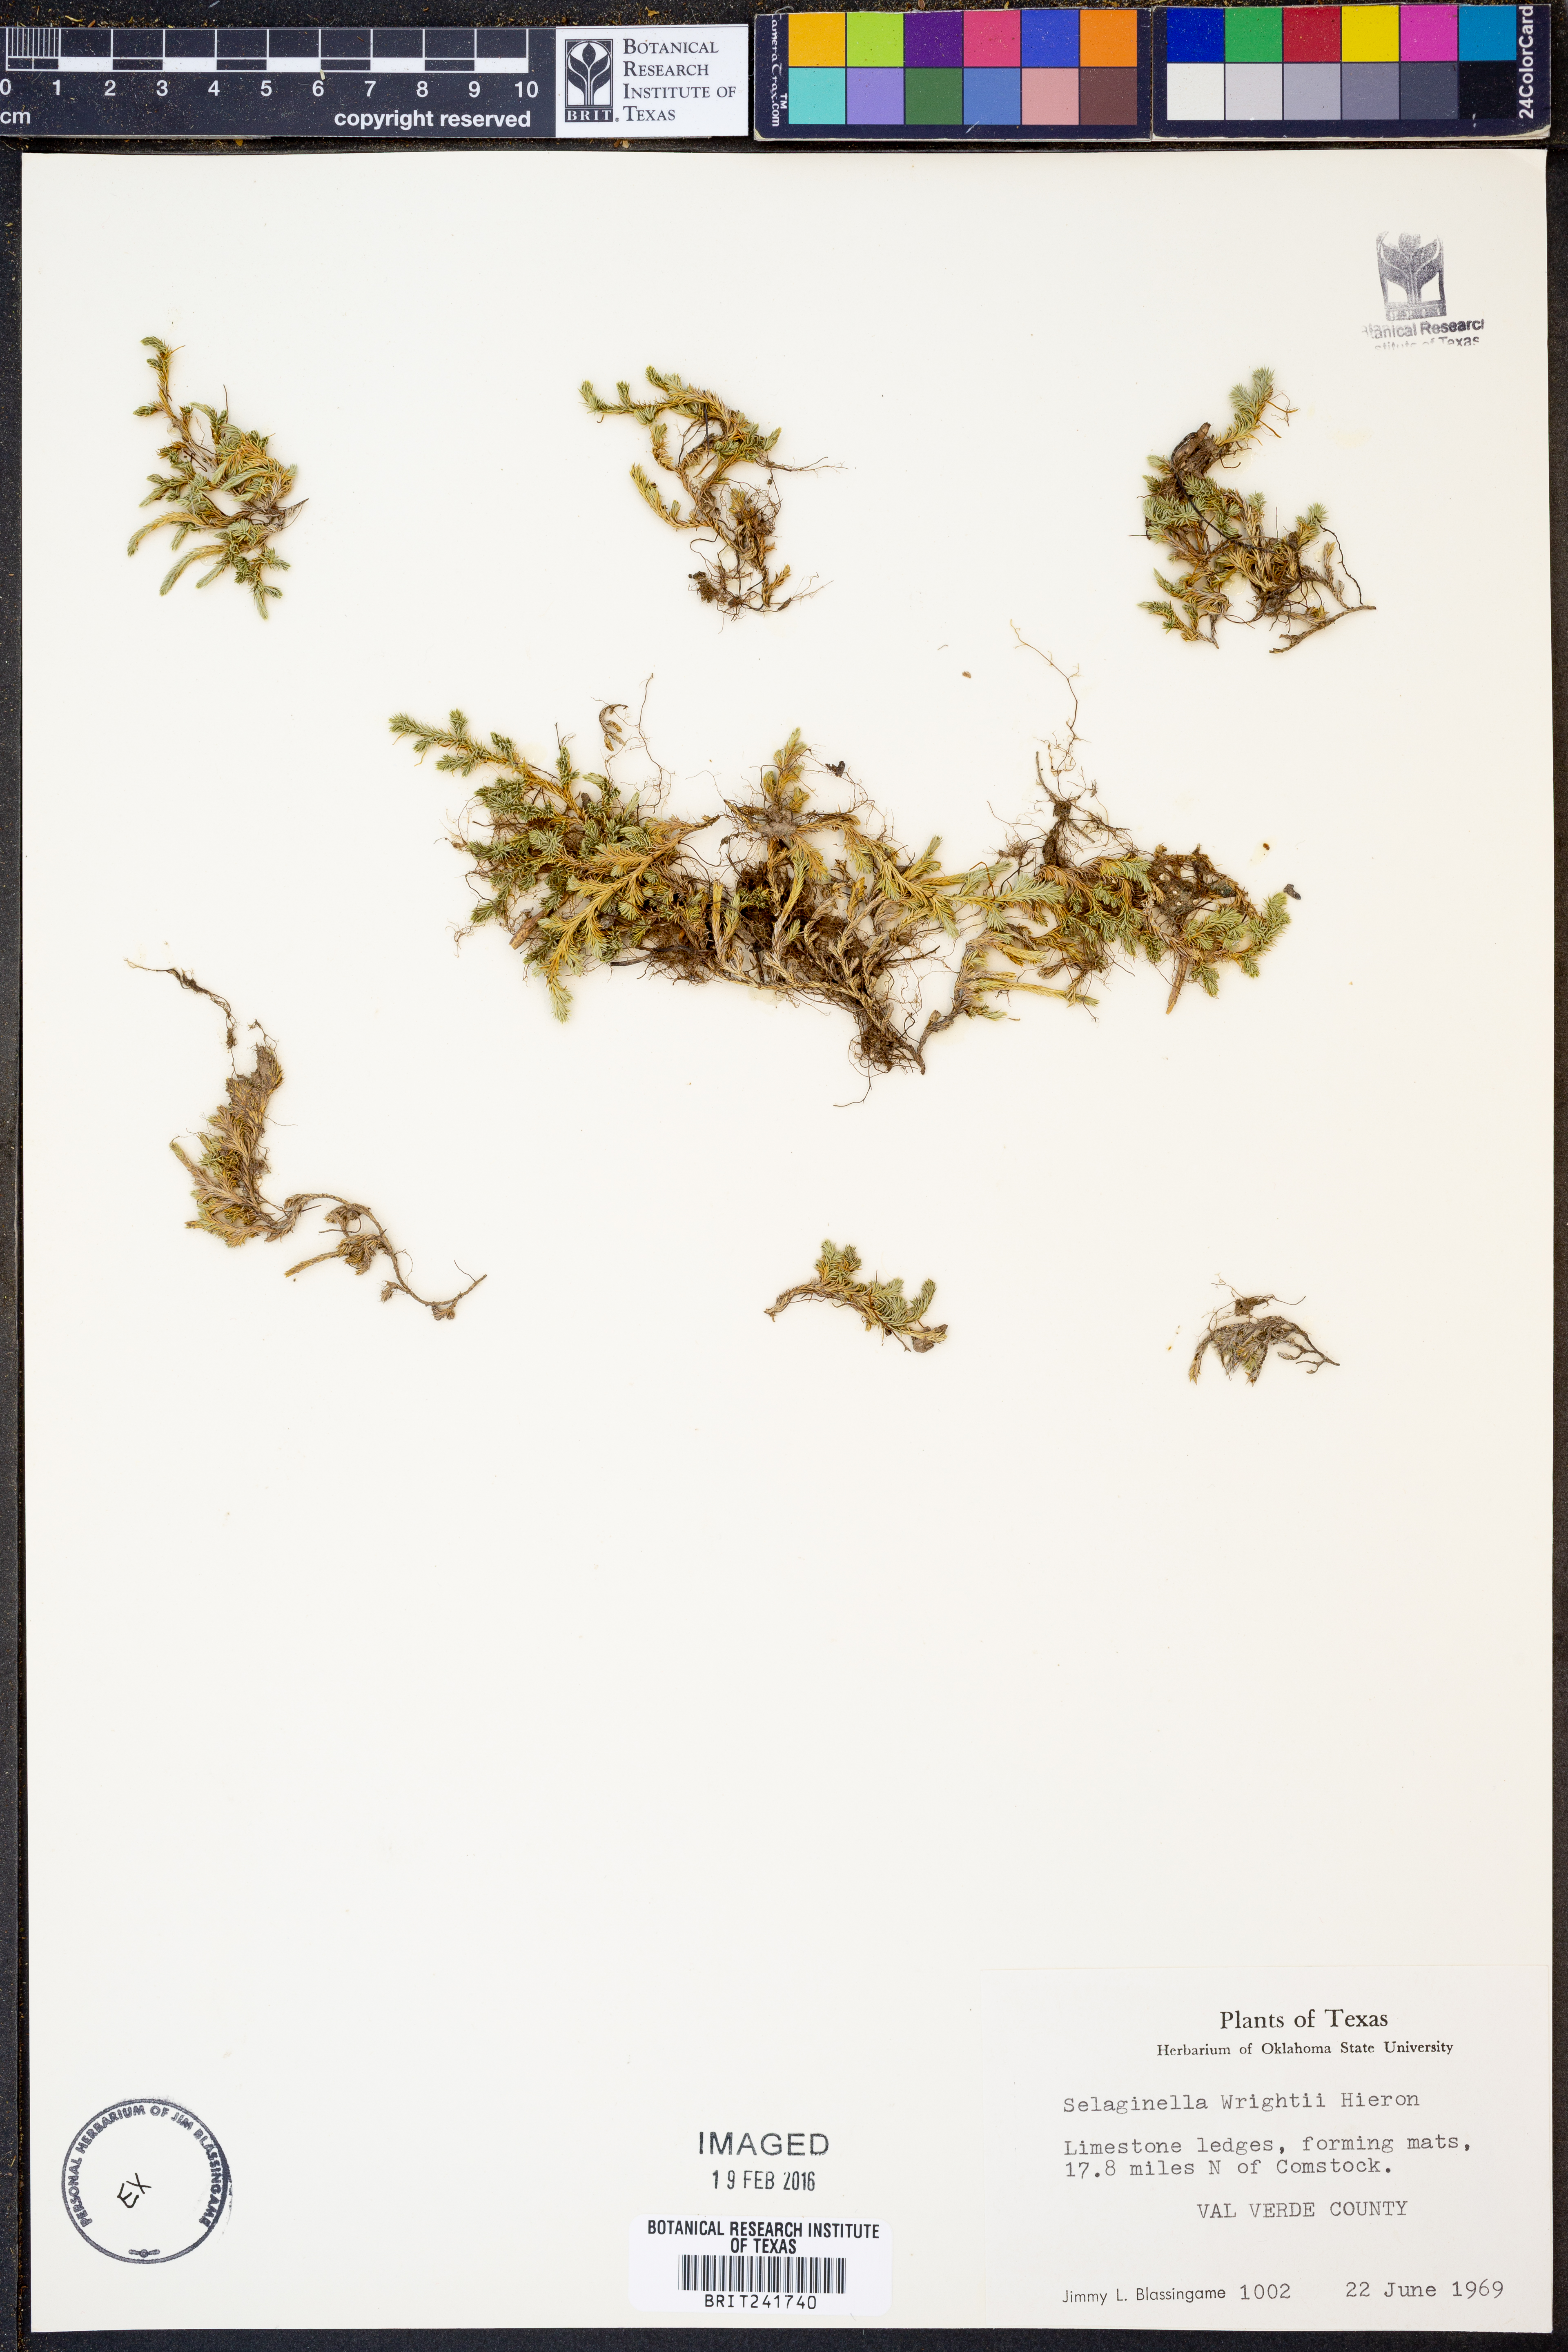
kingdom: Plantae
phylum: Tracheophyta
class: Lycopodiopsida
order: Selaginellales
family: Selaginellaceae
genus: Selaginella
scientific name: Selaginella wrightii
